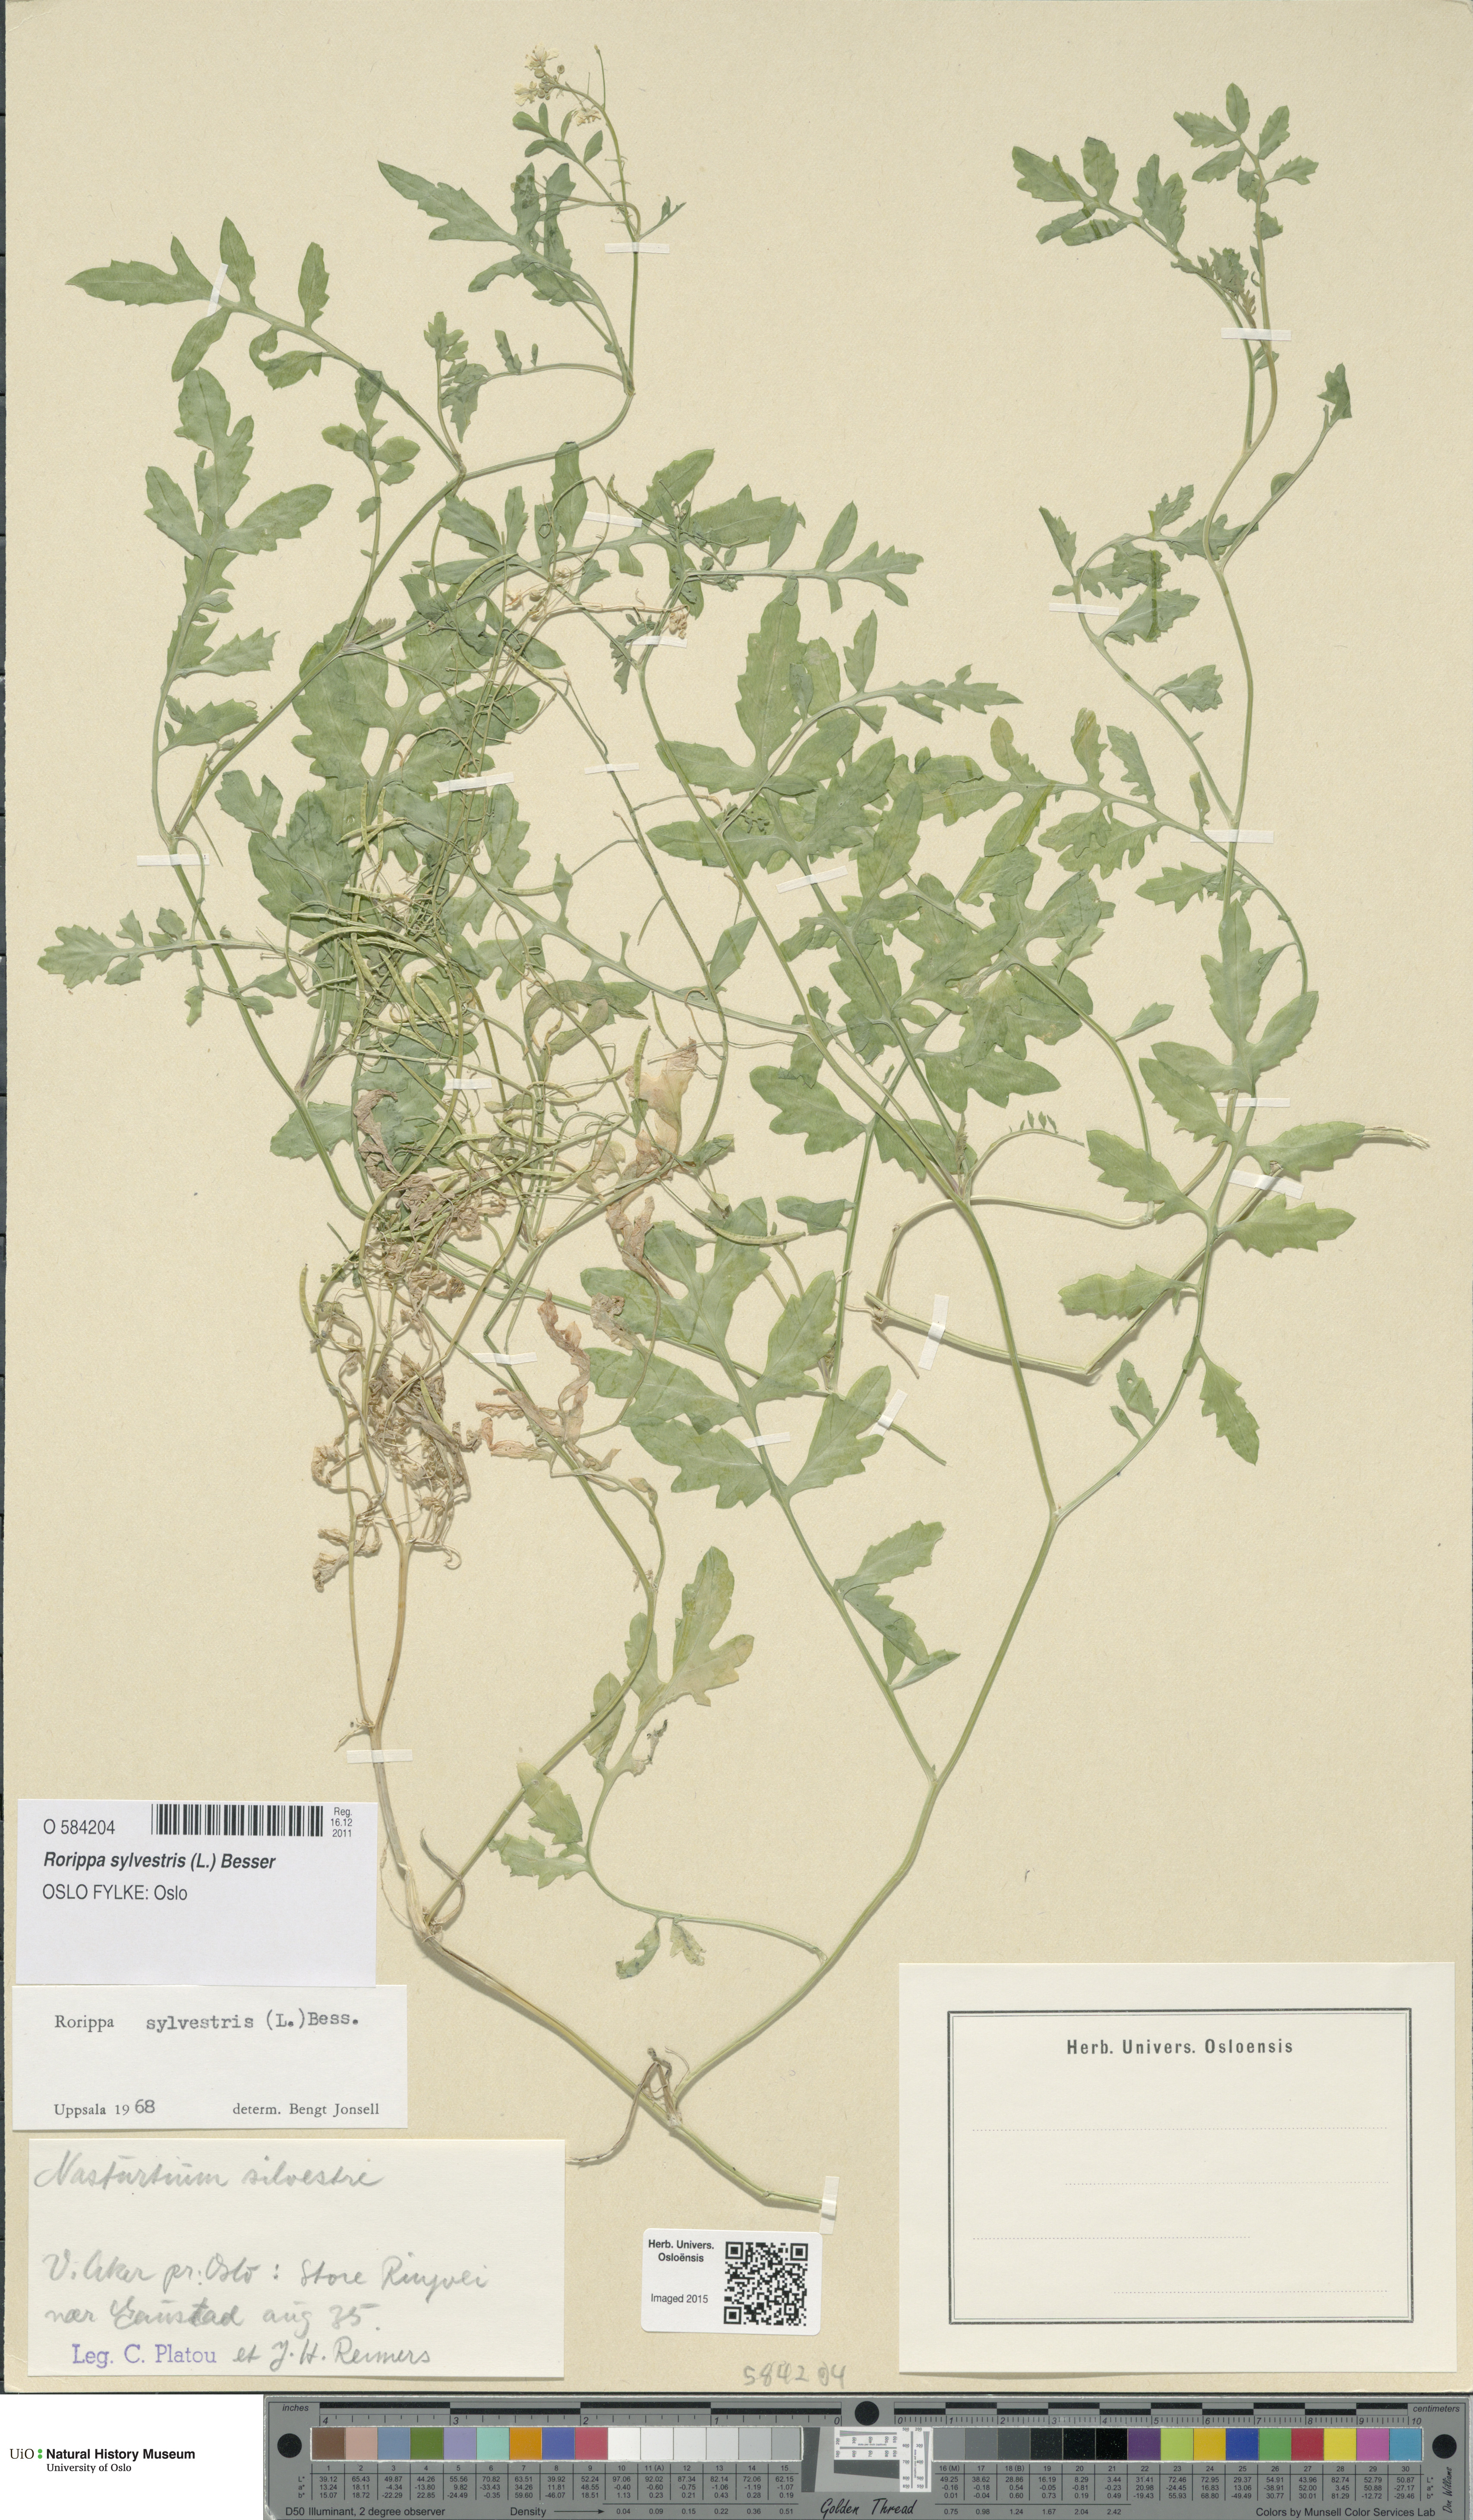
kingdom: Plantae
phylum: Tracheophyta
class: Magnoliopsida
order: Brassicales
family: Brassicaceae
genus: Rorippa
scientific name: Rorippa sylvestris
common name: Creeping yellowcress
